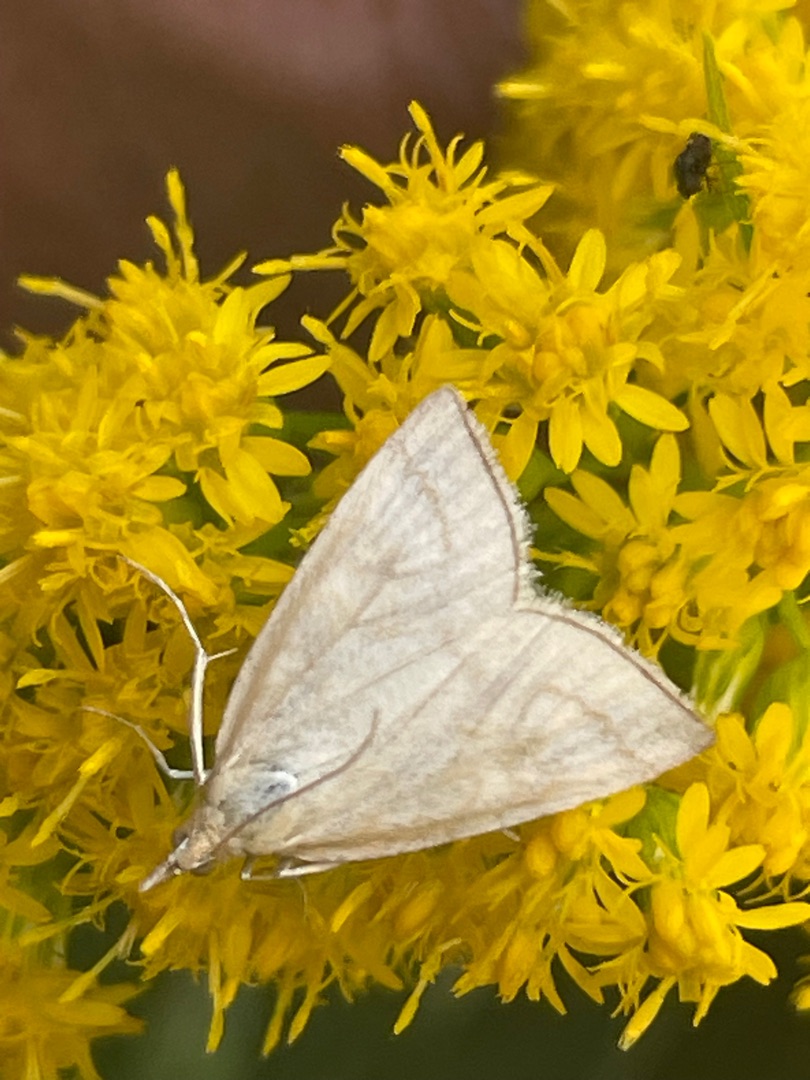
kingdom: Animalia
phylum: Arthropoda
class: Insecta
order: Lepidoptera
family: Crambidae
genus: Udea
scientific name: Udea lutealis
